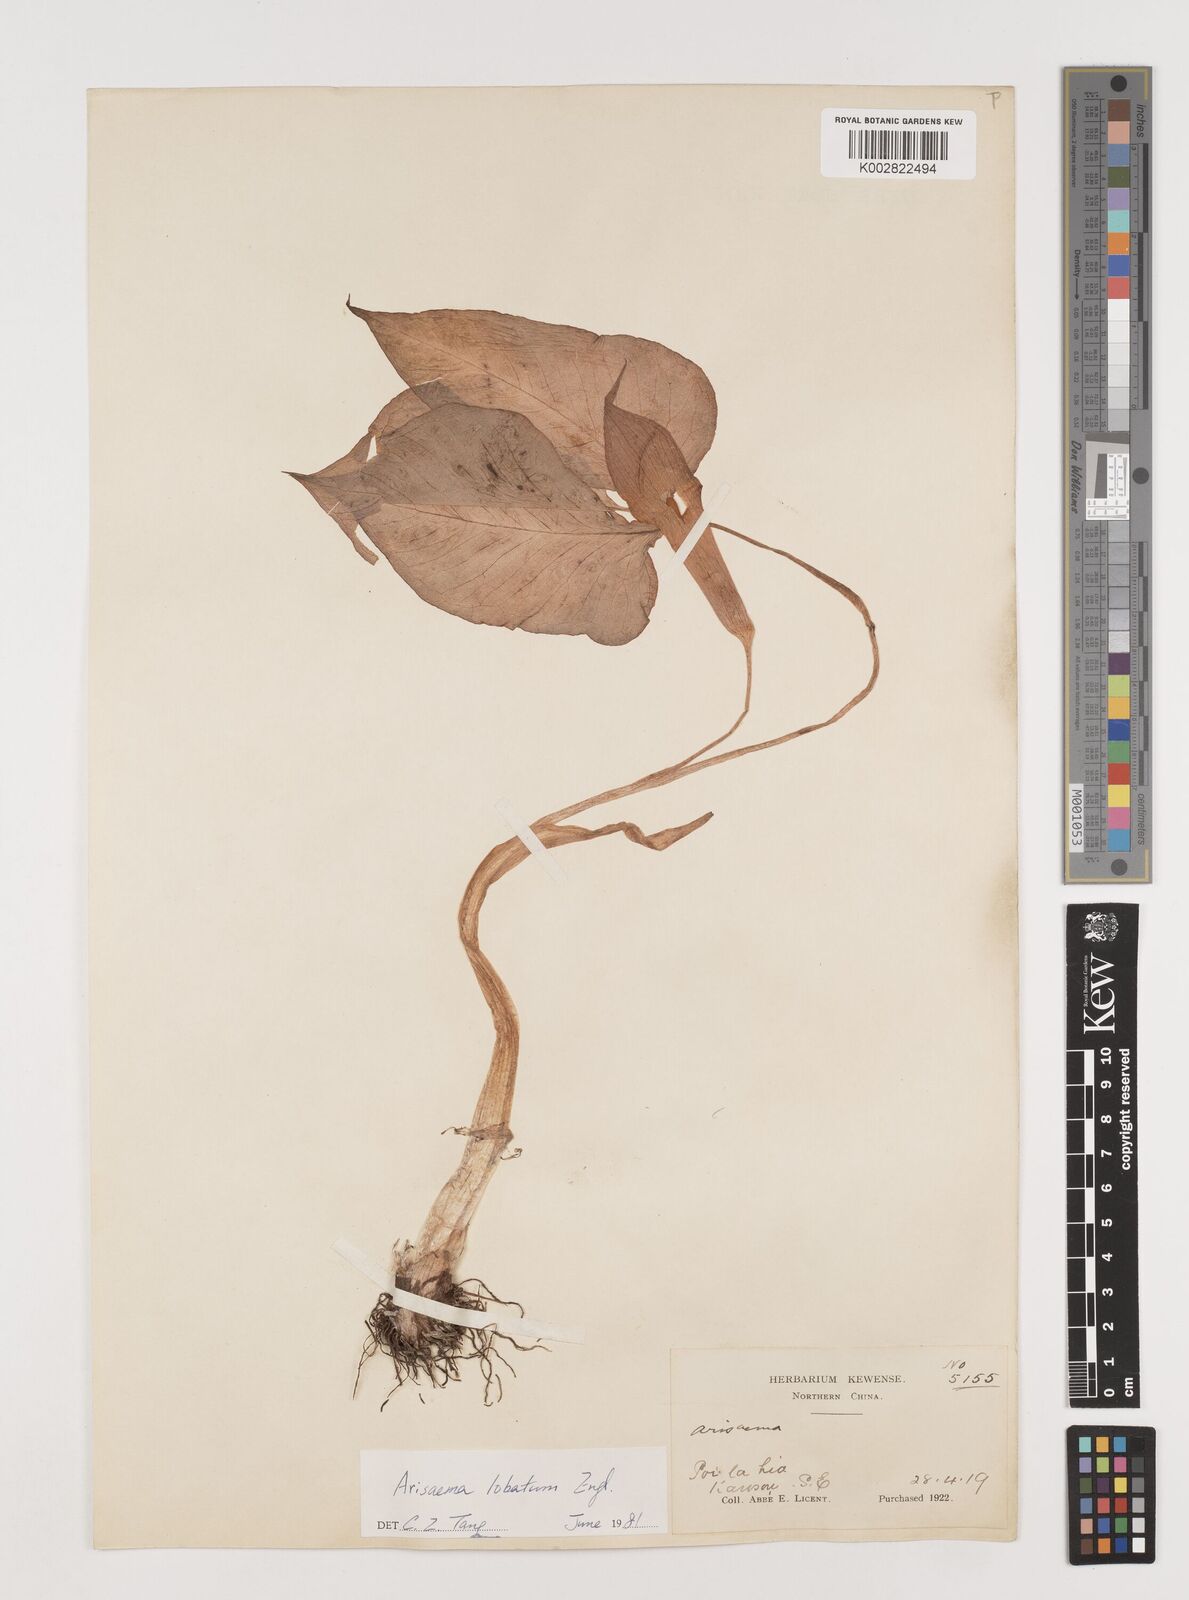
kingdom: Plantae
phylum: Tracheophyta
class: Liliopsida
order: Alismatales
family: Araceae
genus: Arisaema
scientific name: Arisaema lobatum
